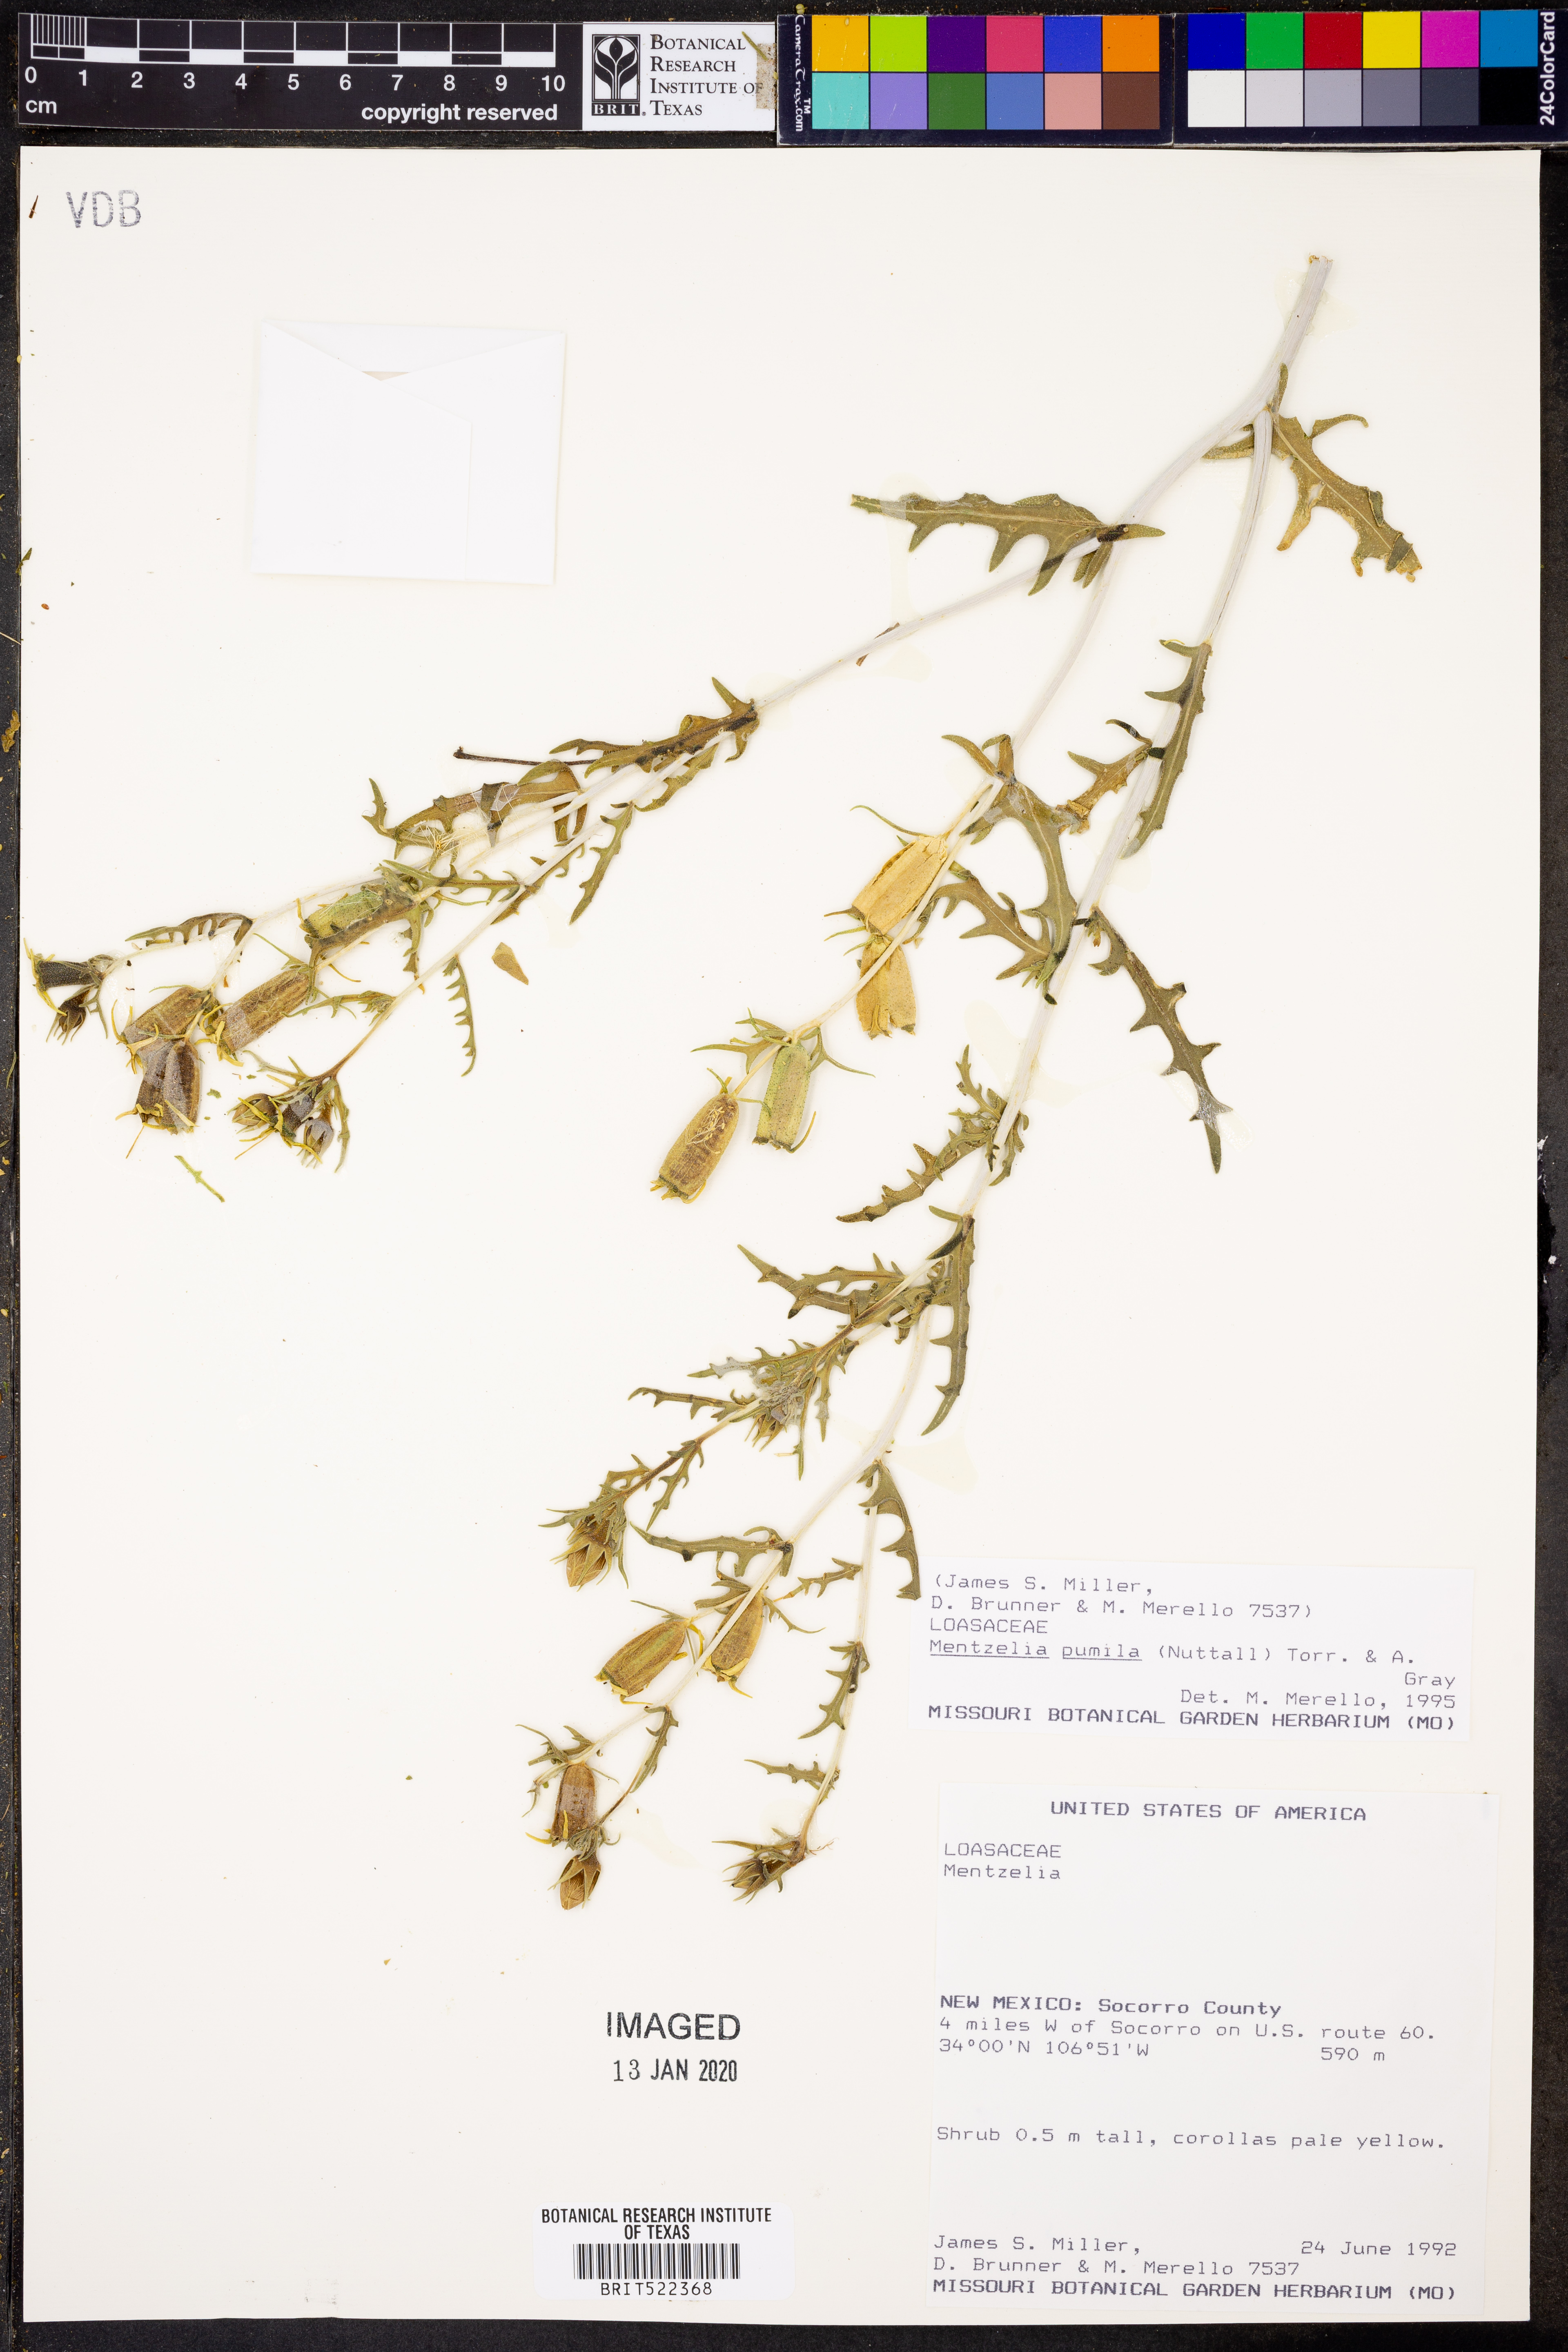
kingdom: Plantae
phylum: Tracheophyta
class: Magnoliopsida
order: Cornales
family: Loasaceae
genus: Mentzelia
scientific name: Mentzelia pumila
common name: Wyoming stickleaf
